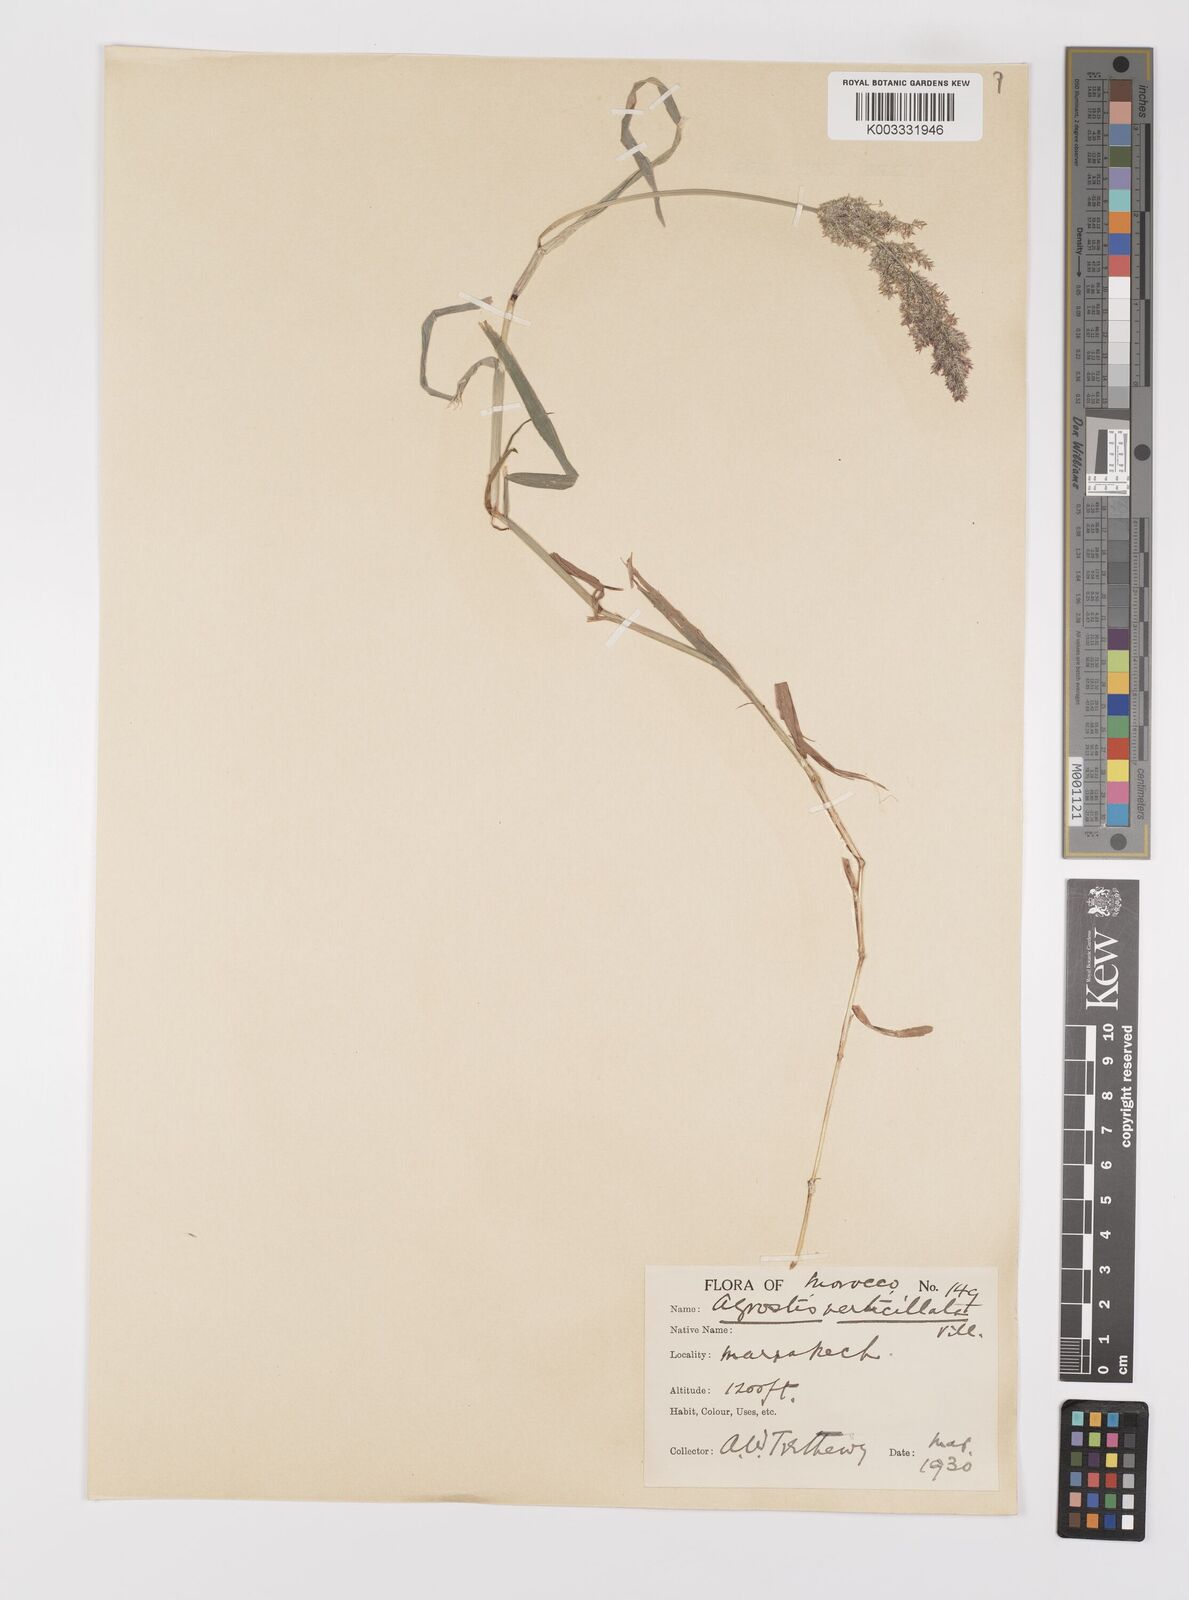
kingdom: Plantae
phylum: Tracheophyta
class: Liliopsida
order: Poales
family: Poaceae
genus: Polypogon
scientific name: Polypogon viridis
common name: Water bent
